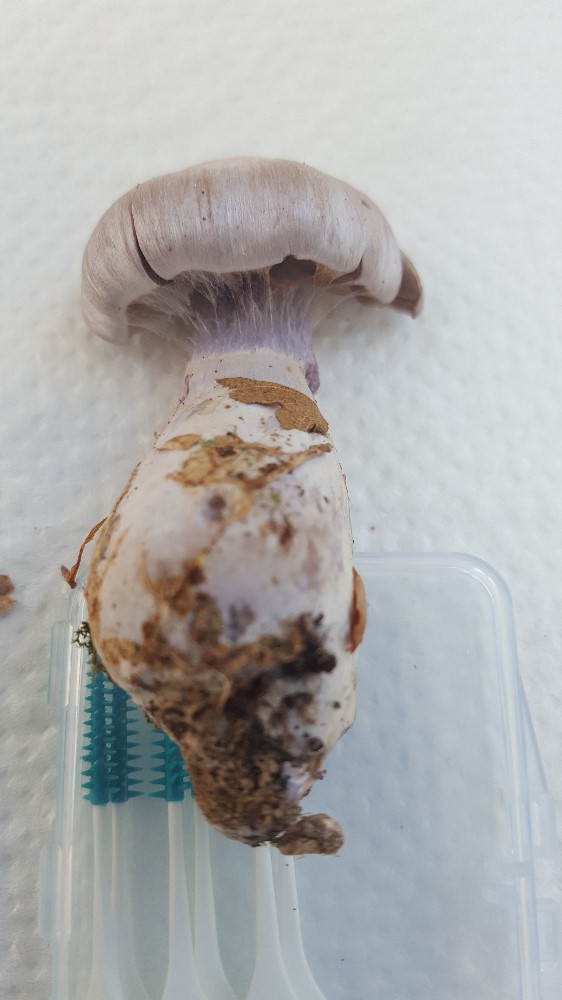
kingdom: Fungi
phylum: Basidiomycota
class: Agaricomycetes
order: Agaricales
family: Cortinariaceae
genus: Cortinarius
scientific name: Cortinarius alboviolaceus
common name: lysviolet slørhat
